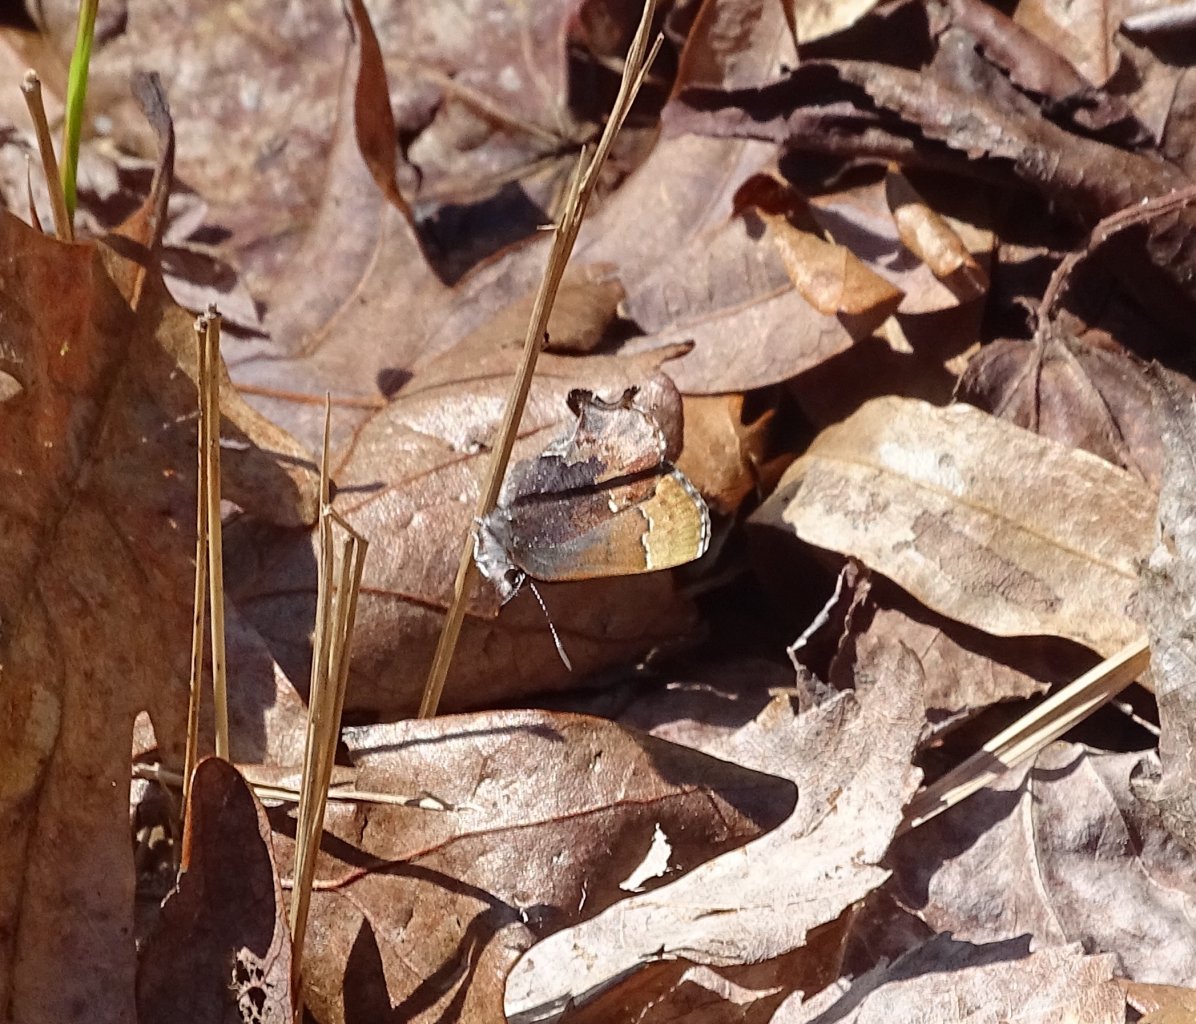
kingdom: Animalia
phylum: Arthropoda
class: Insecta
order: Lepidoptera
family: Lycaenidae
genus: Incisalia
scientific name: Incisalia henrici
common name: Henry's Elfin
